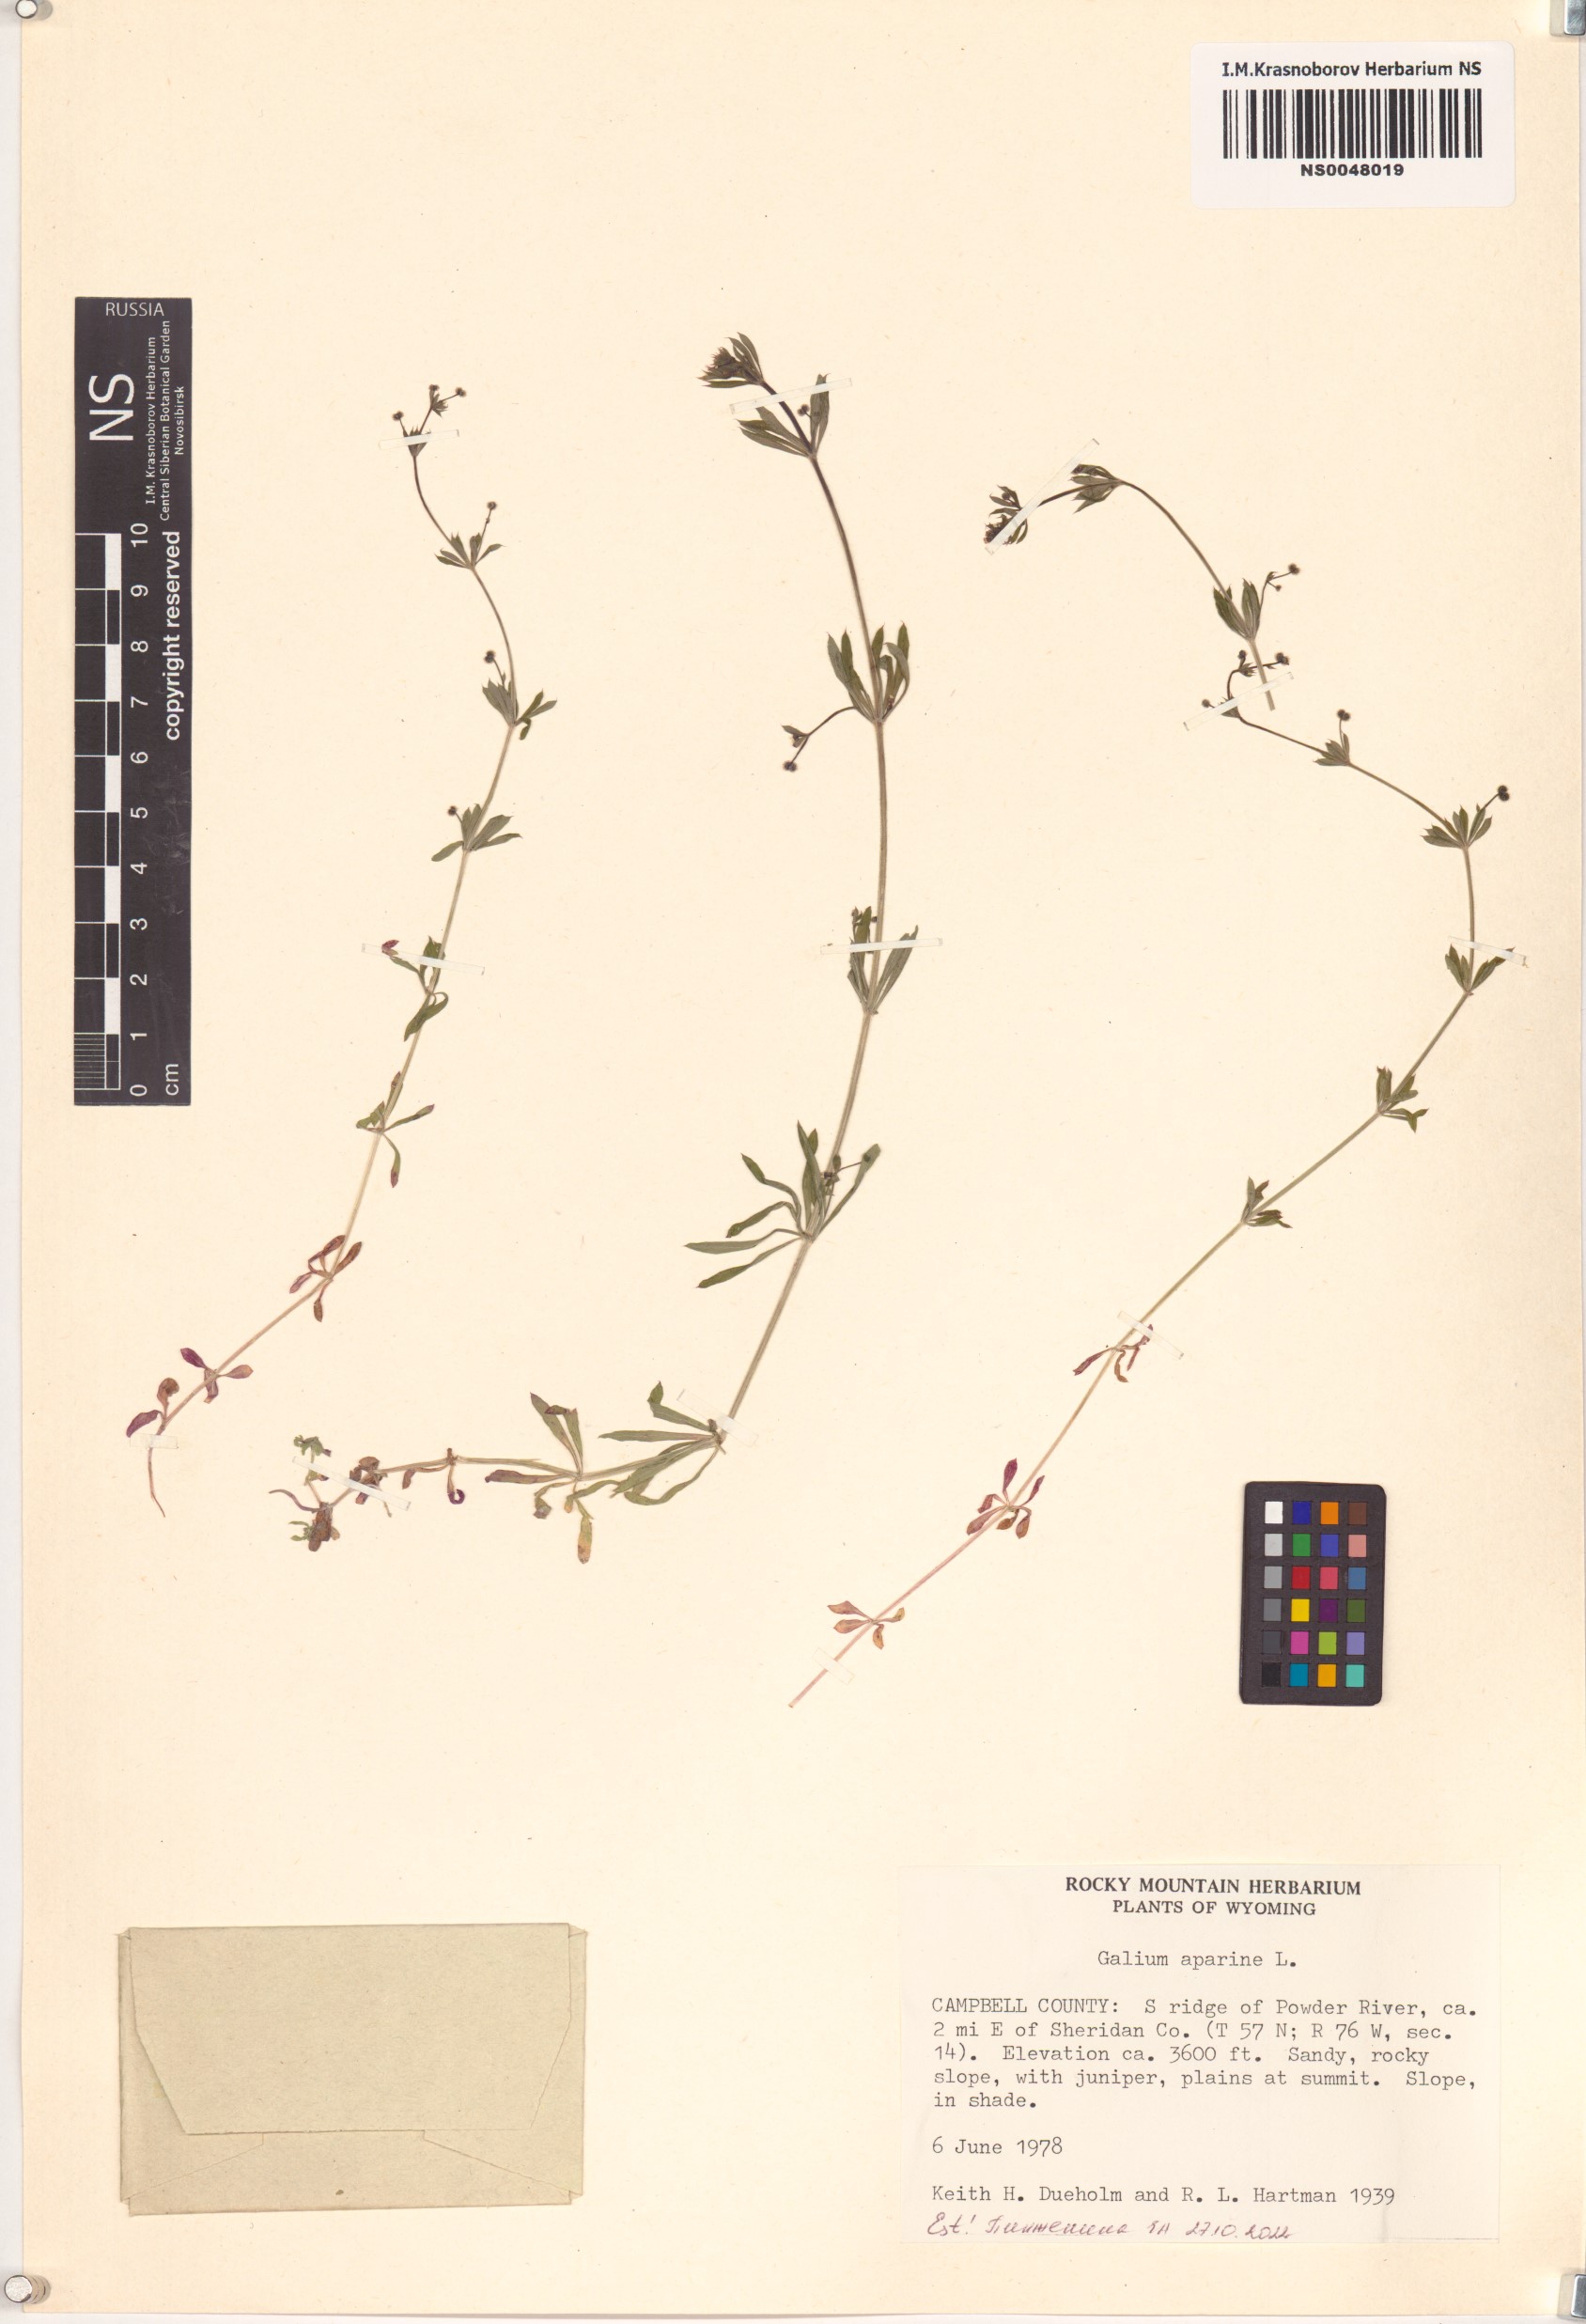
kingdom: Plantae
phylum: Tracheophyta
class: Magnoliopsida
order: Gentianales
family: Rubiaceae
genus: Galium
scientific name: Galium aparine
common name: Cleavers
